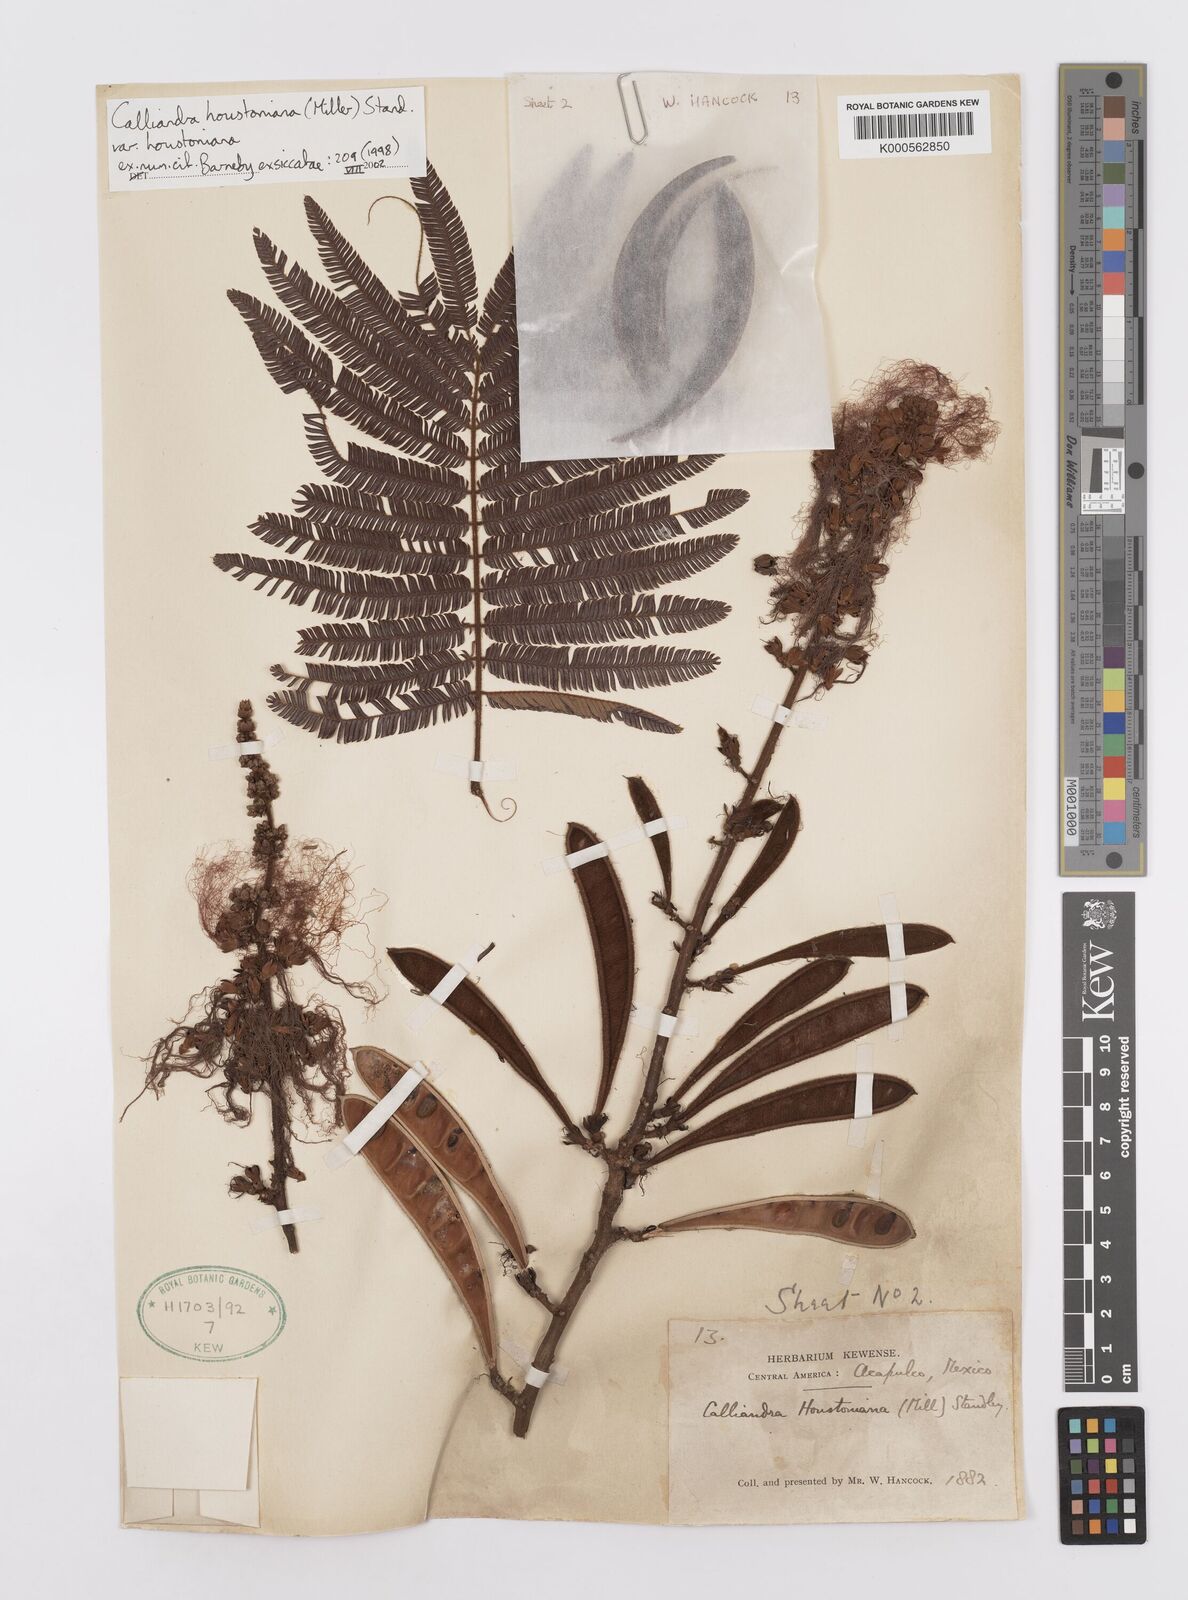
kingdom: Plantae
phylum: Tracheophyta
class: Magnoliopsida
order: Fabales
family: Fabaceae
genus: Calliandra
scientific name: Calliandra houstoniana
